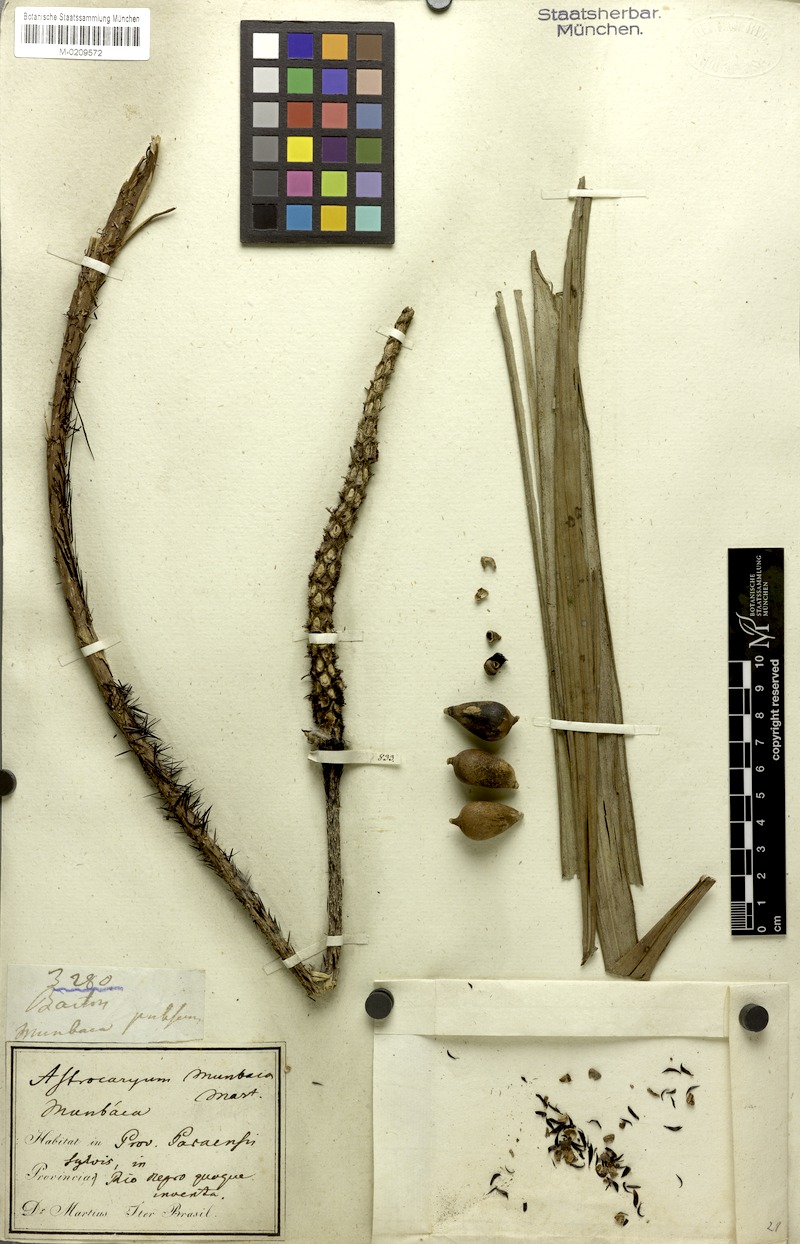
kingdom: Plantae
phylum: Tracheophyta
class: Liliopsida
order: Arecales
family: Arecaceae
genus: Astrocaryum
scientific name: Astrocaryum aculeatum
